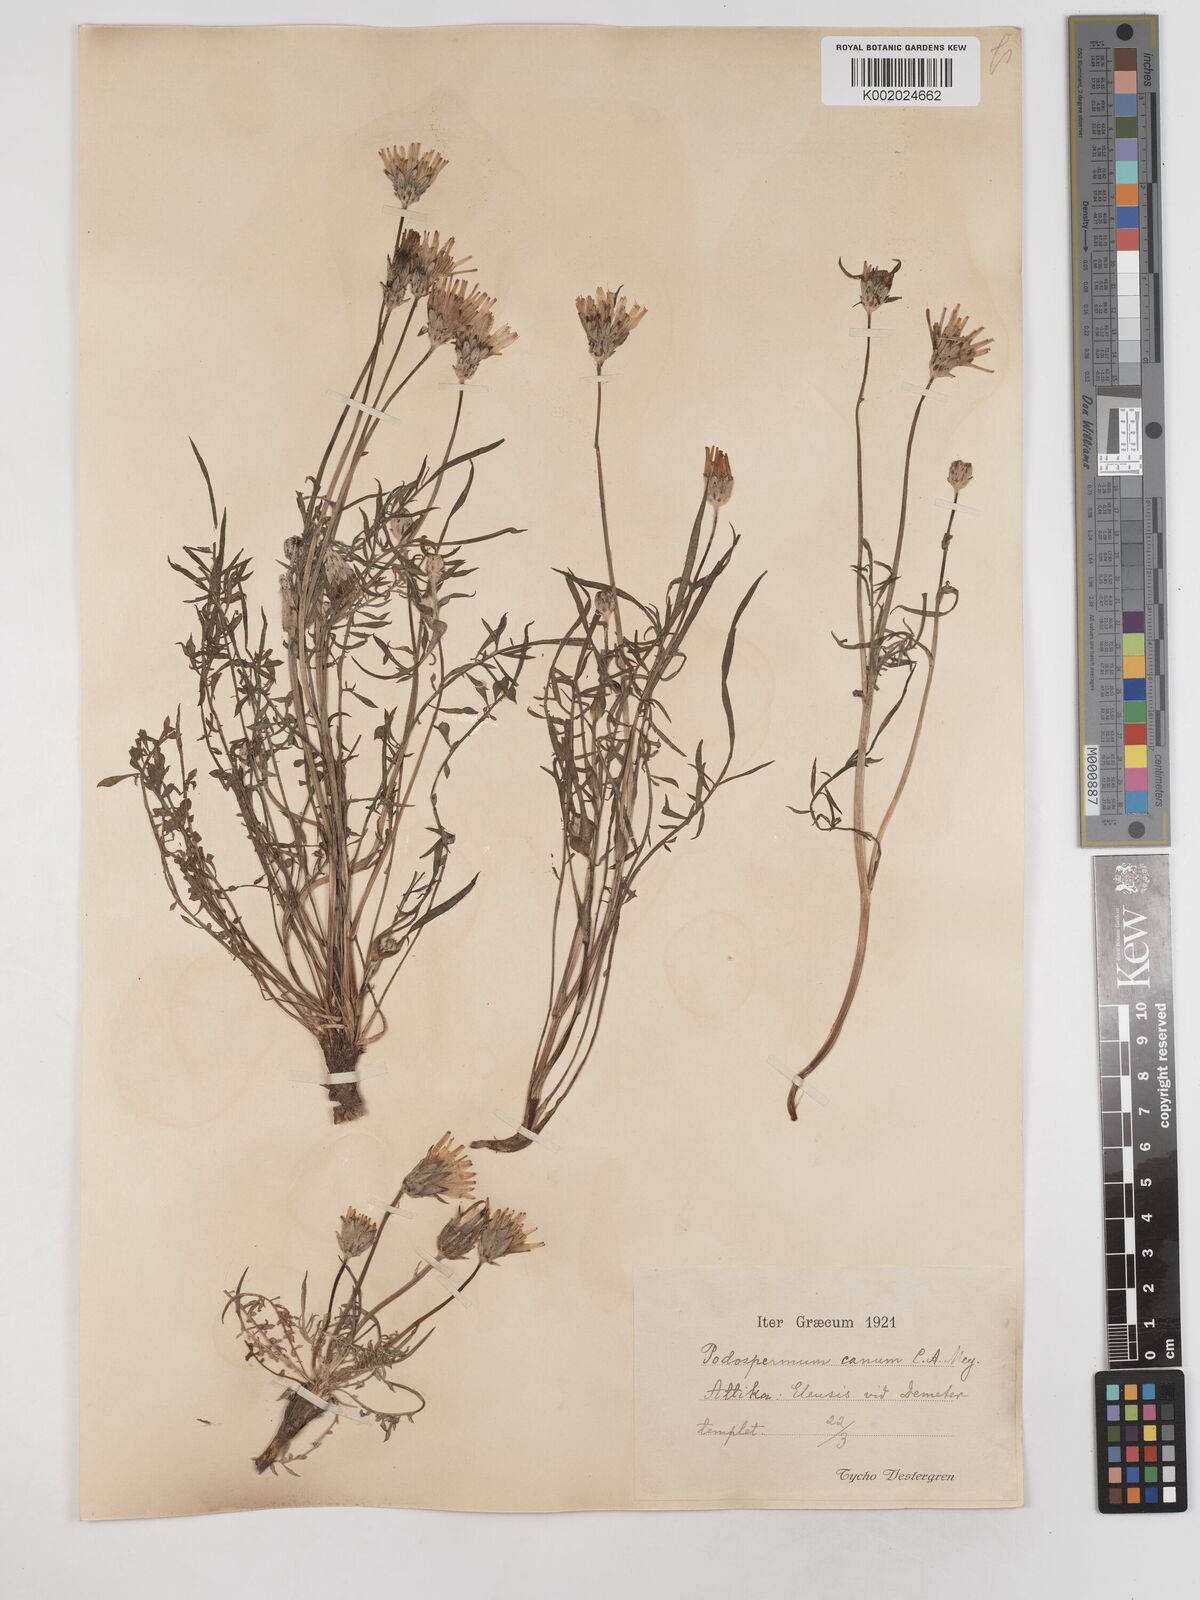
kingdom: Plantae
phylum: Tracheophyta
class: Magnoliopsida
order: Asterales
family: Asteraceae
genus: Scorzonera
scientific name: Scorzonera cana
